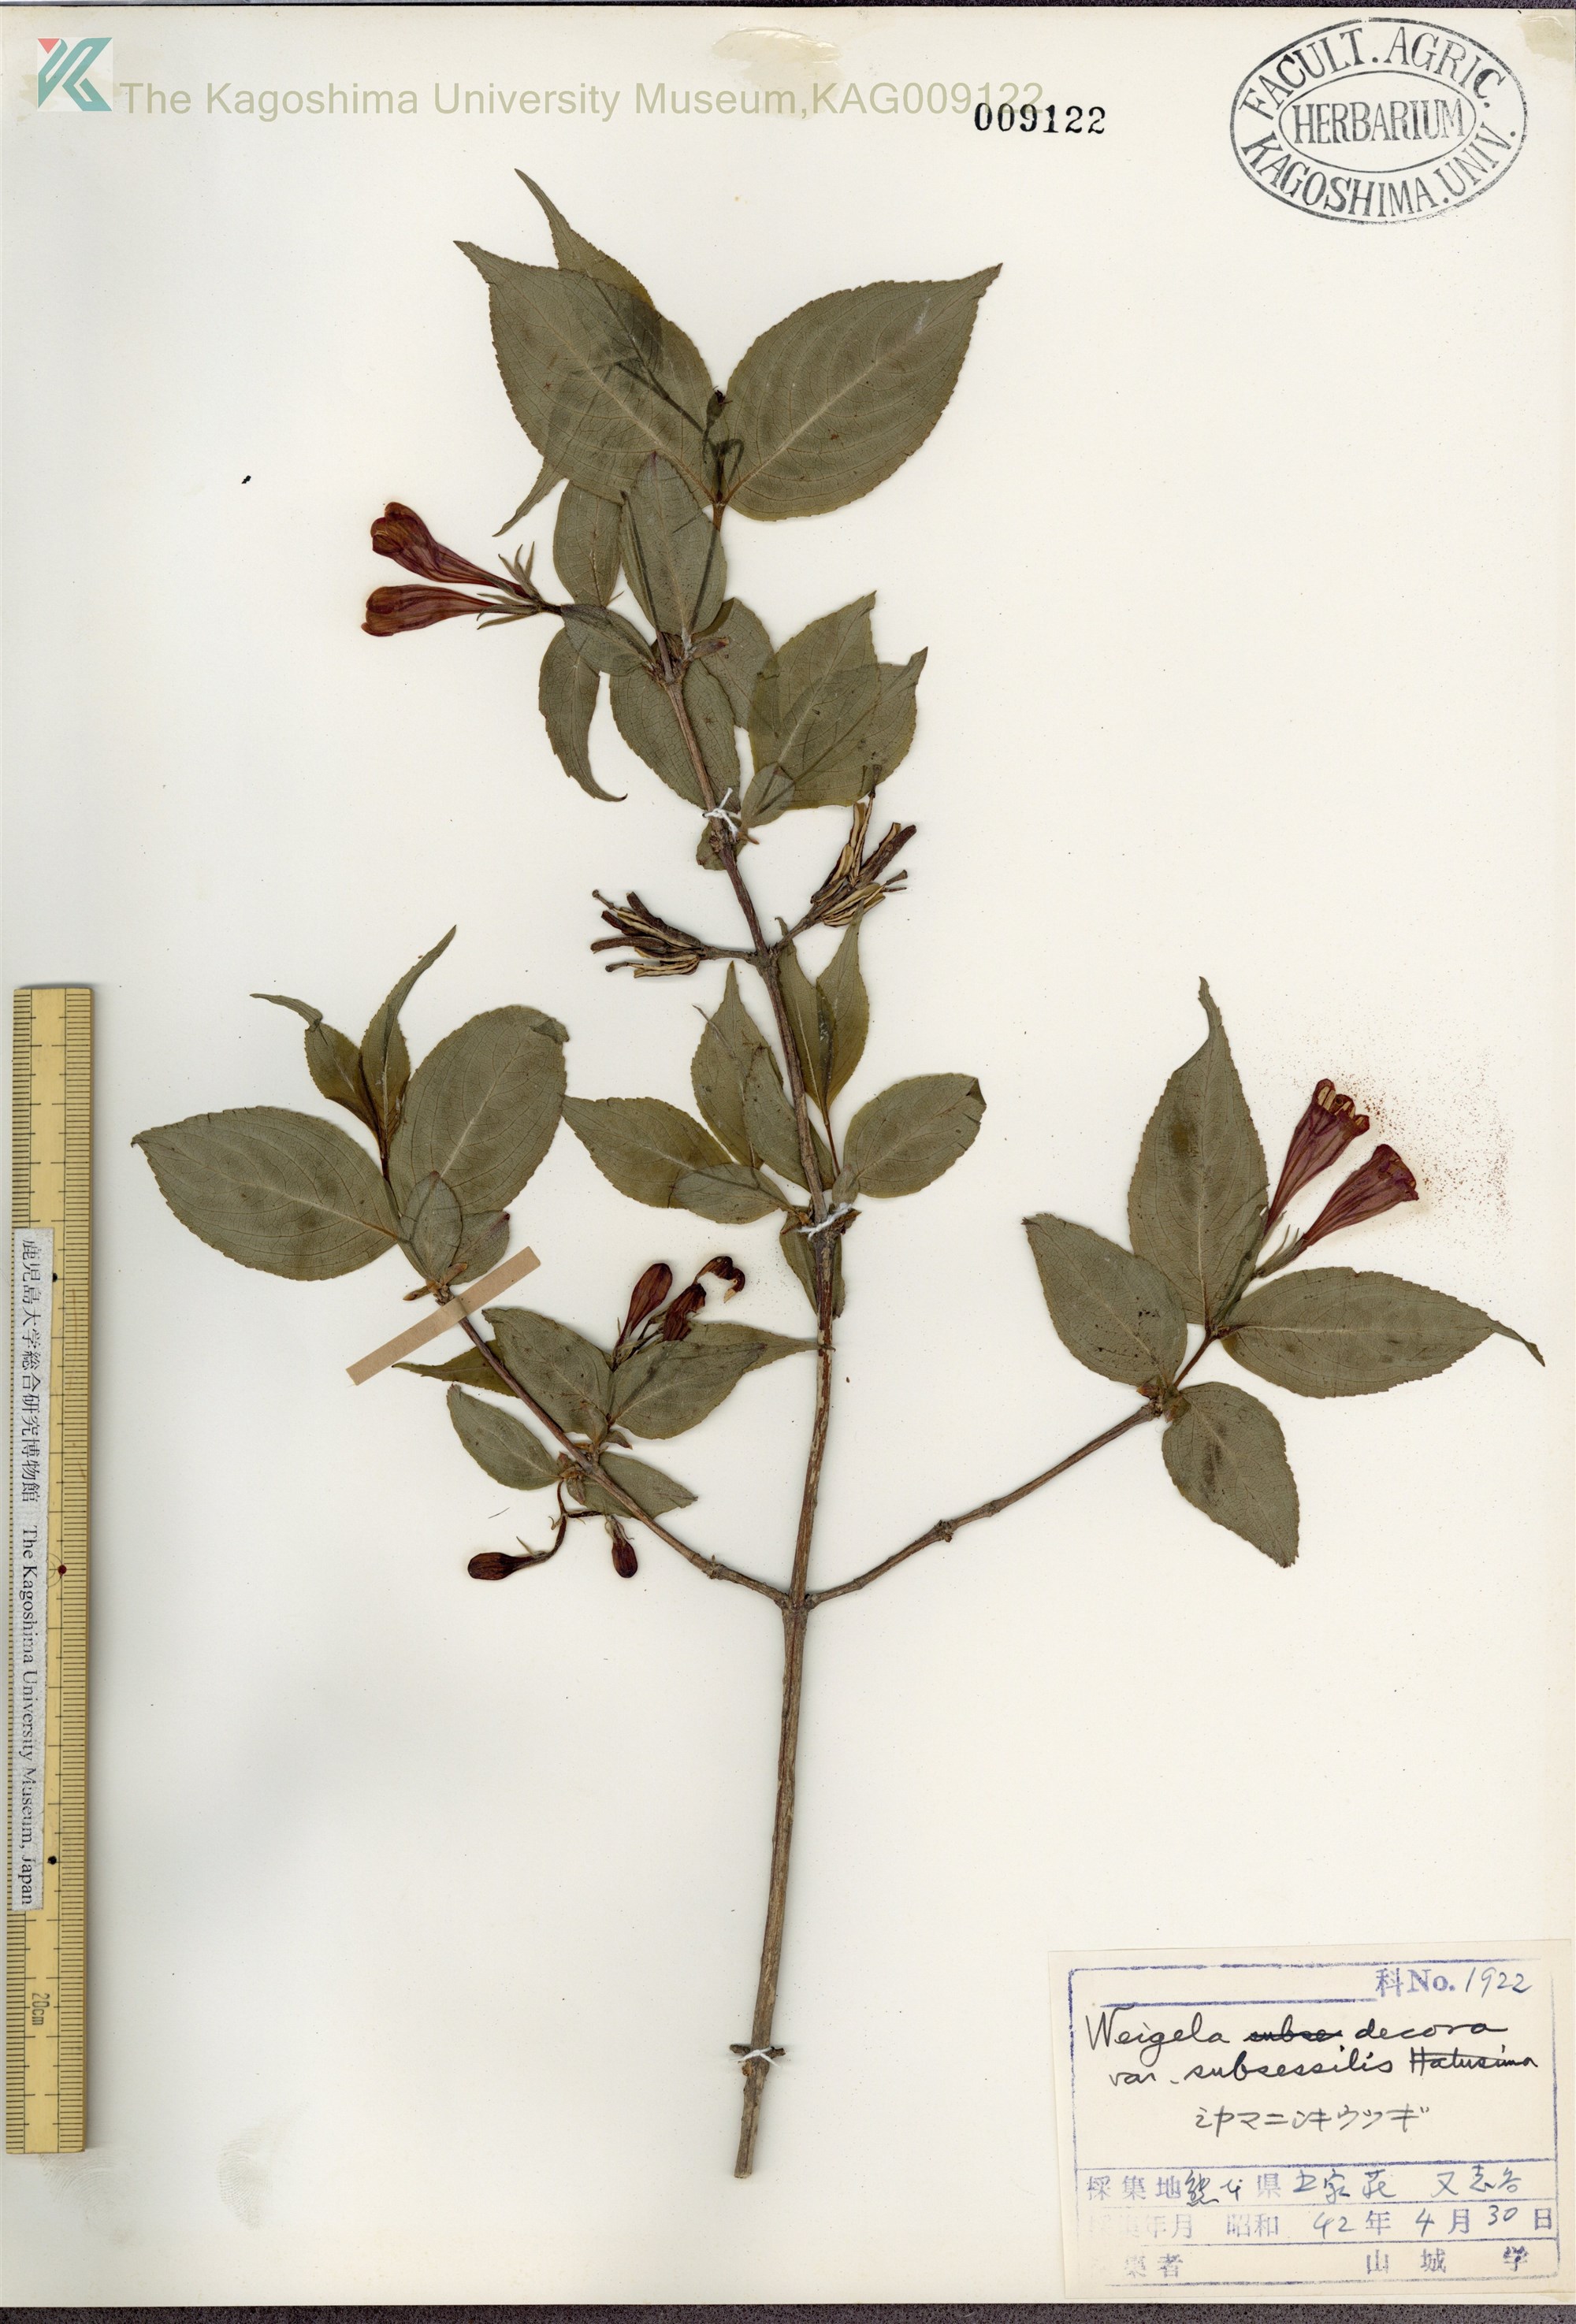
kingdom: Plantae
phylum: Tracheophyta
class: Magnoliopsida
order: Dipsacales
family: Caprifoliaceae
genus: Weigela
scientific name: Weigela decora
